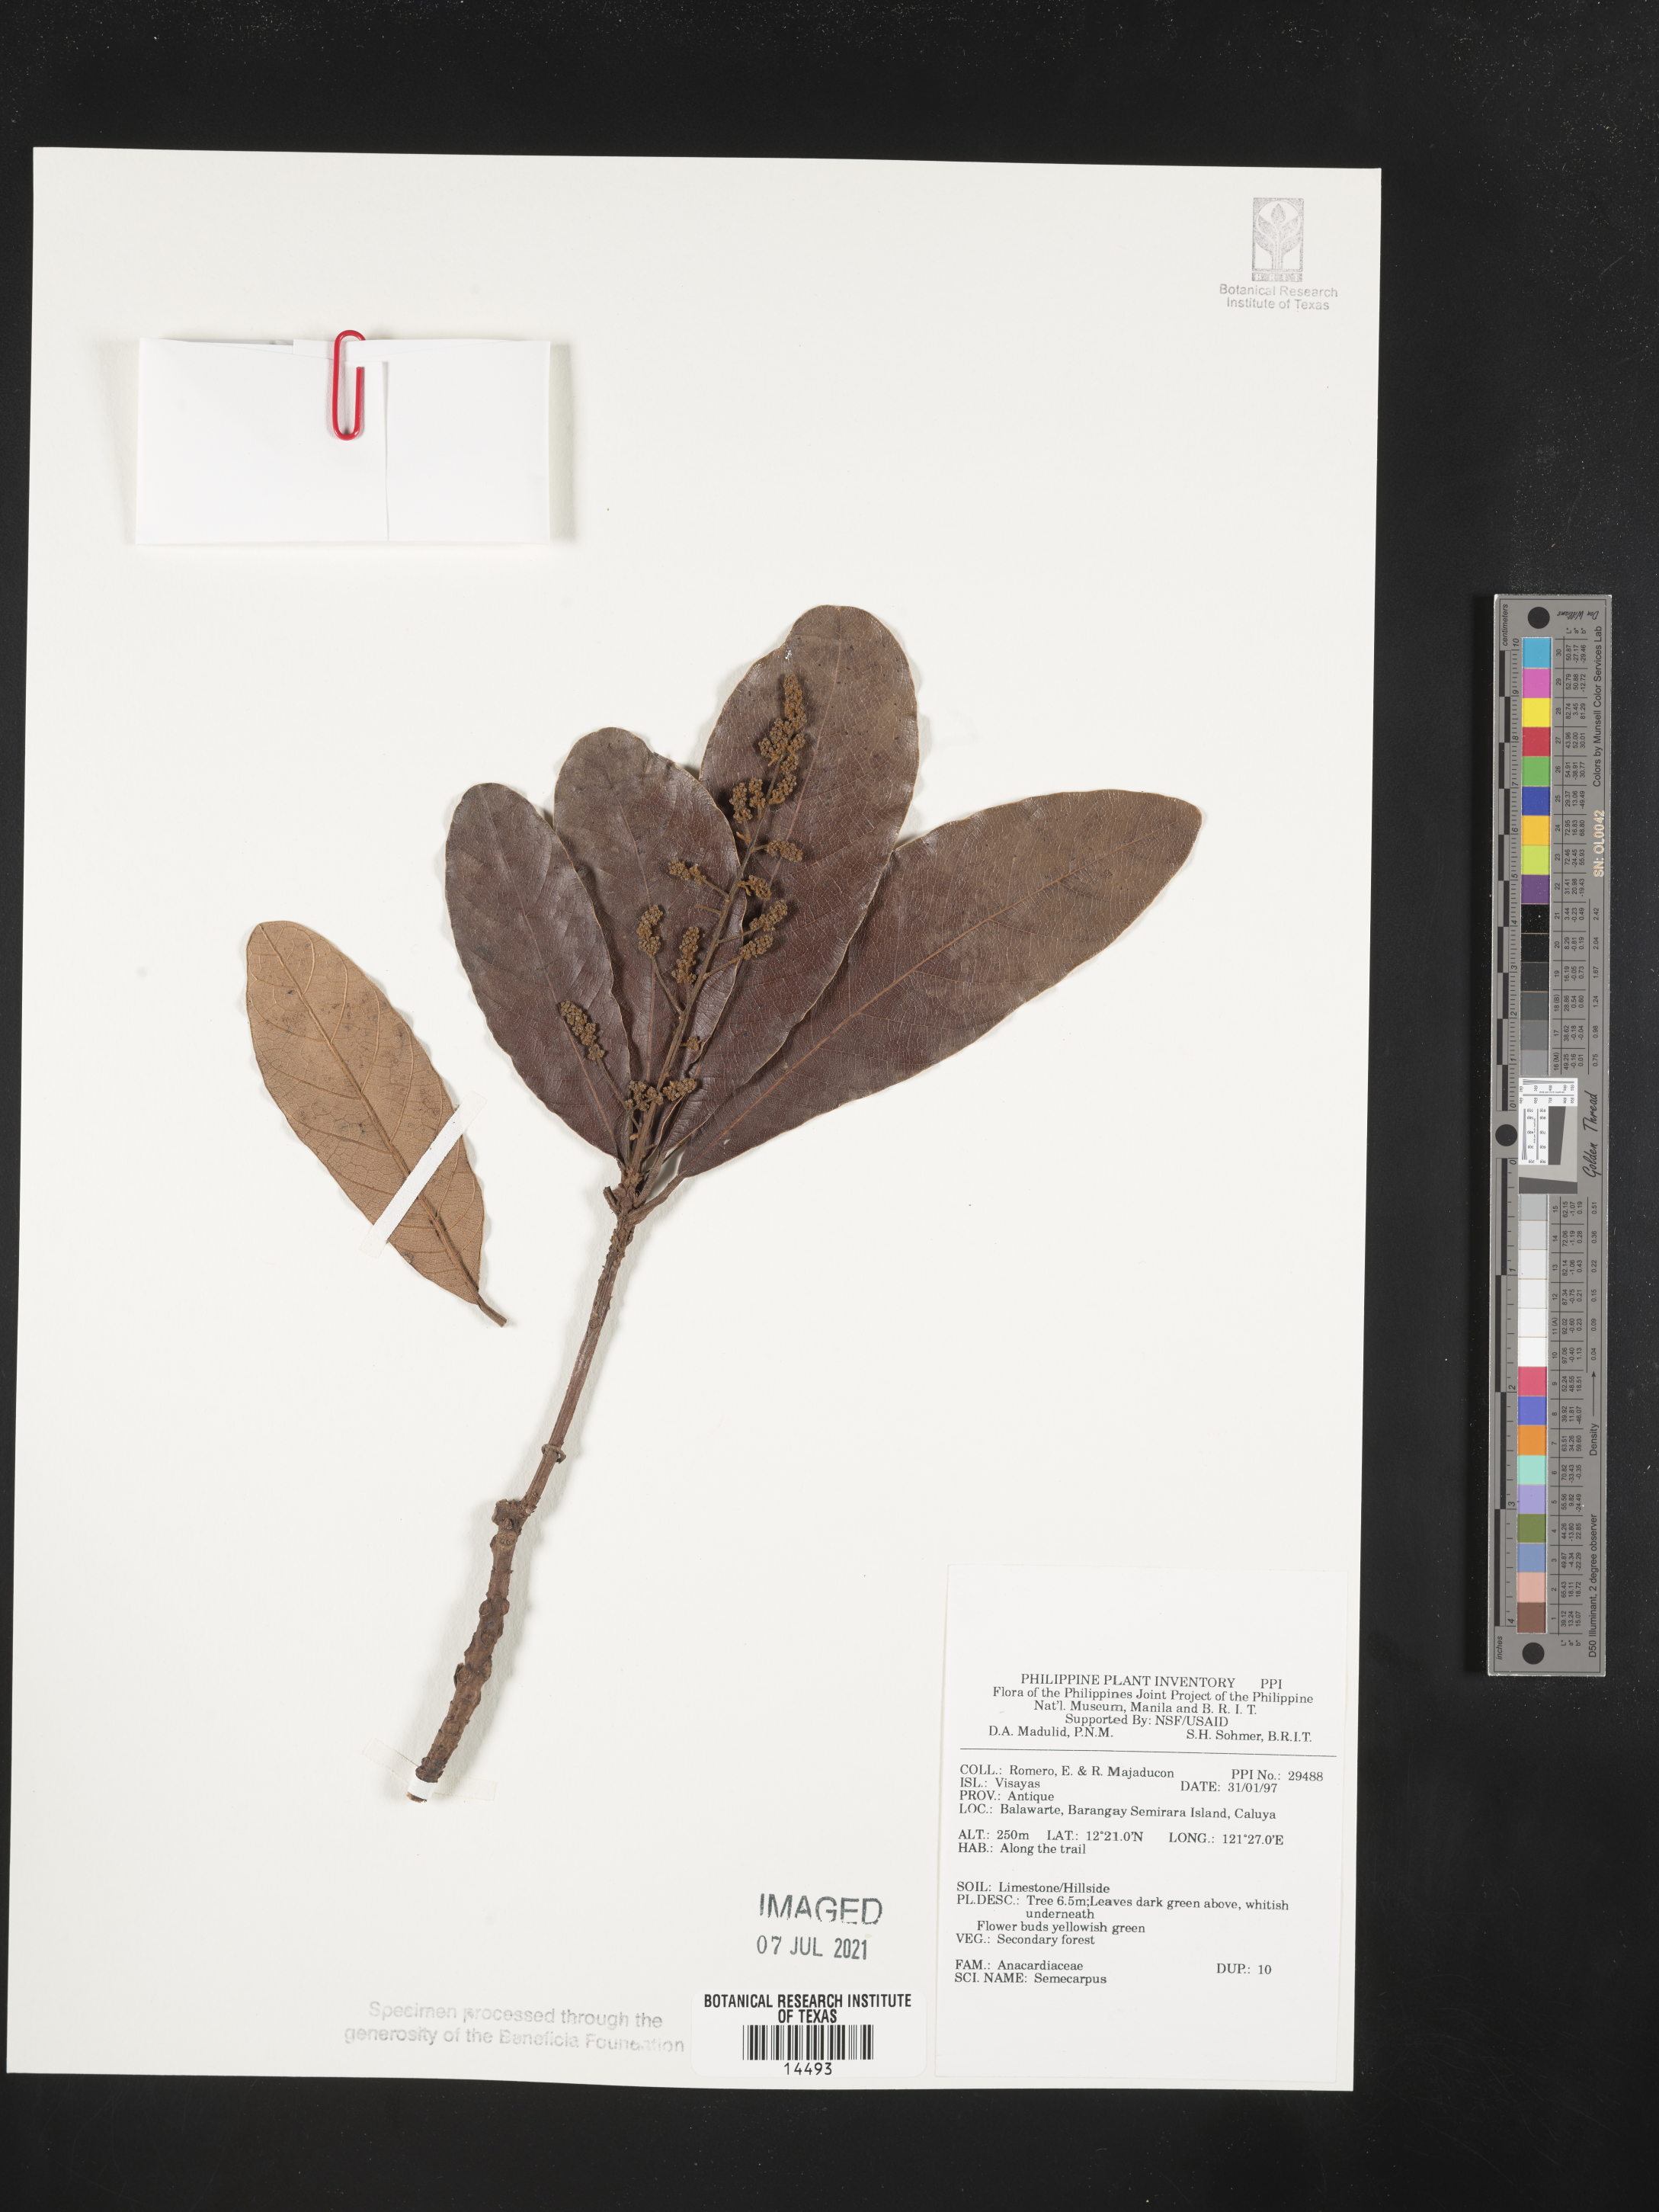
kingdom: Plantae
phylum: Tracheophyta
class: Magnoliopsida
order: Sapindales
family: Anacardiaceae
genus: Semecarpus
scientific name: Semecarpus
